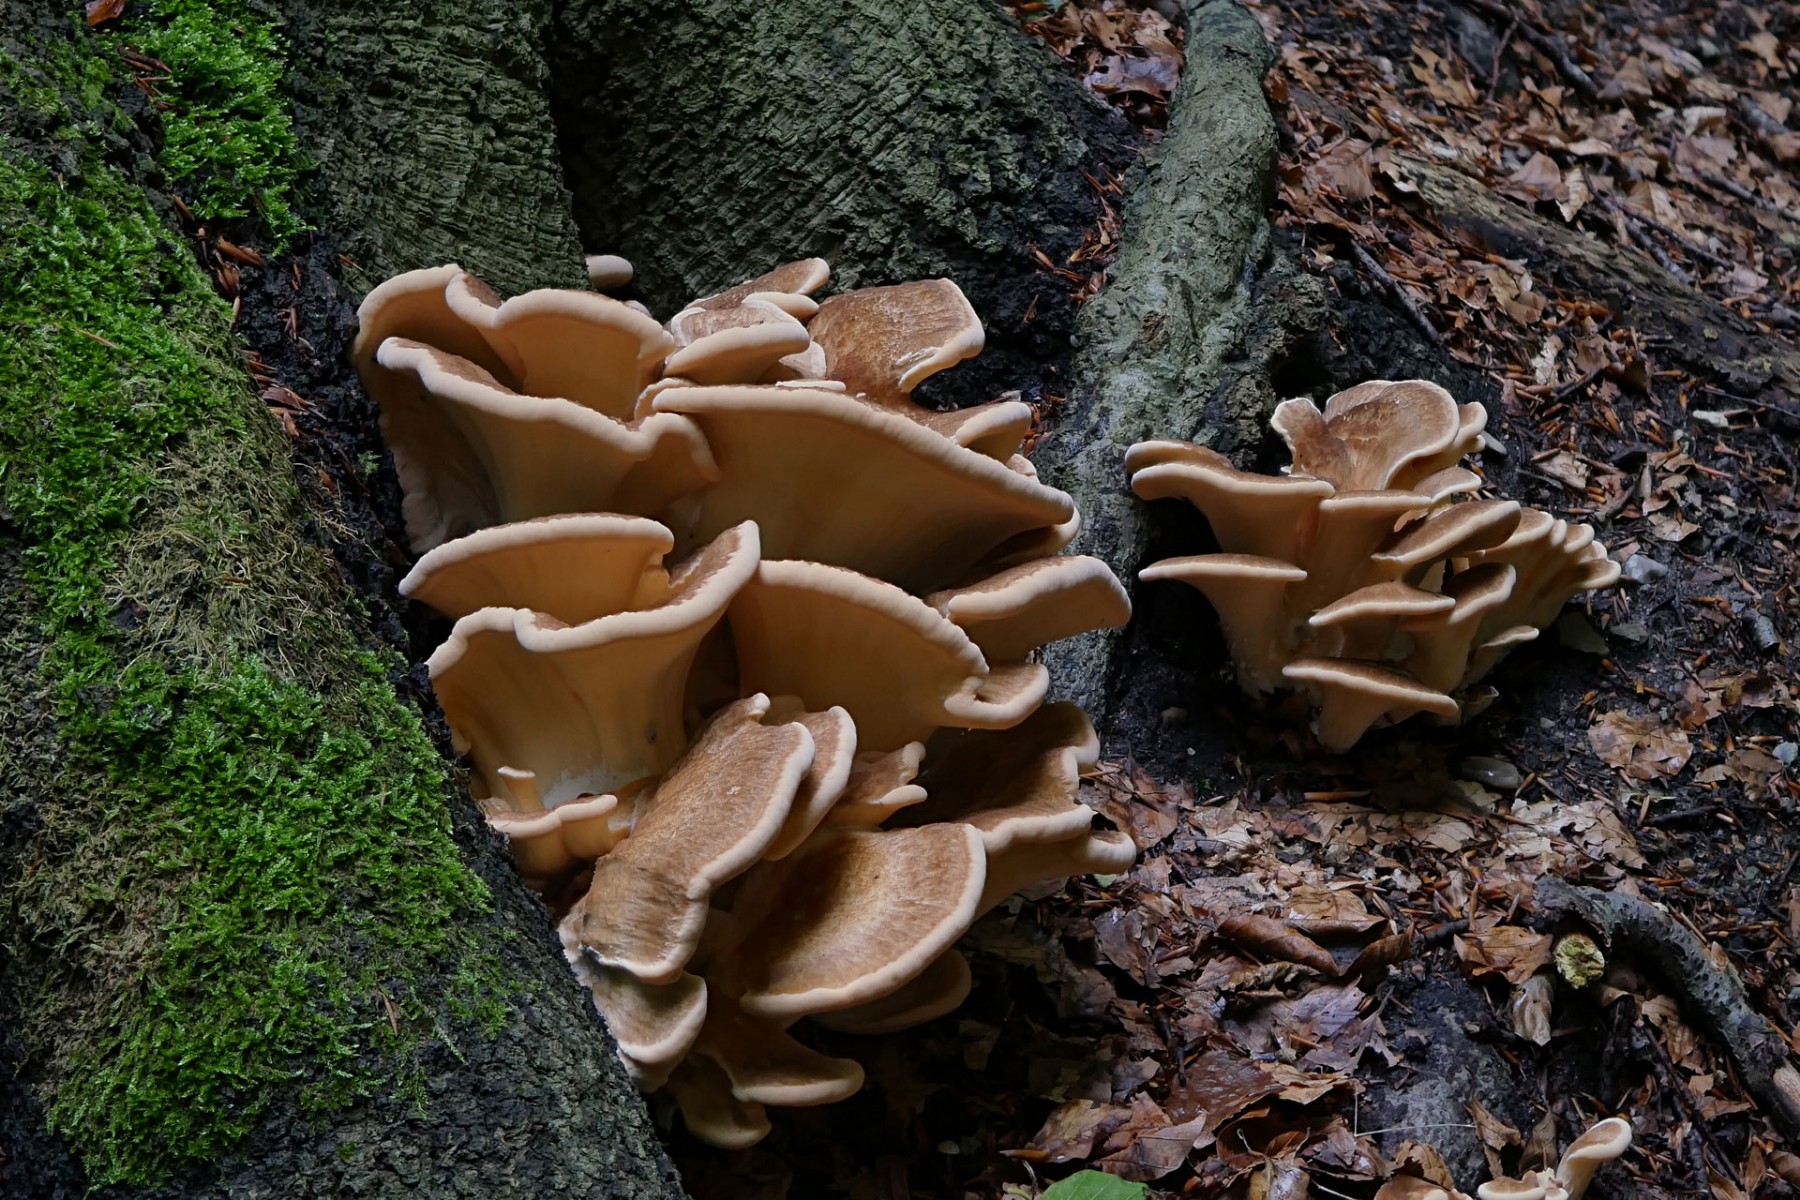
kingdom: Fungi
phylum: Basidiomycota
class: Agaricomycetes
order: Polyporales
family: Meripilaceae
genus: Meripilus
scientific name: Meripilus giganteus
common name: kæmpeporesvamp
